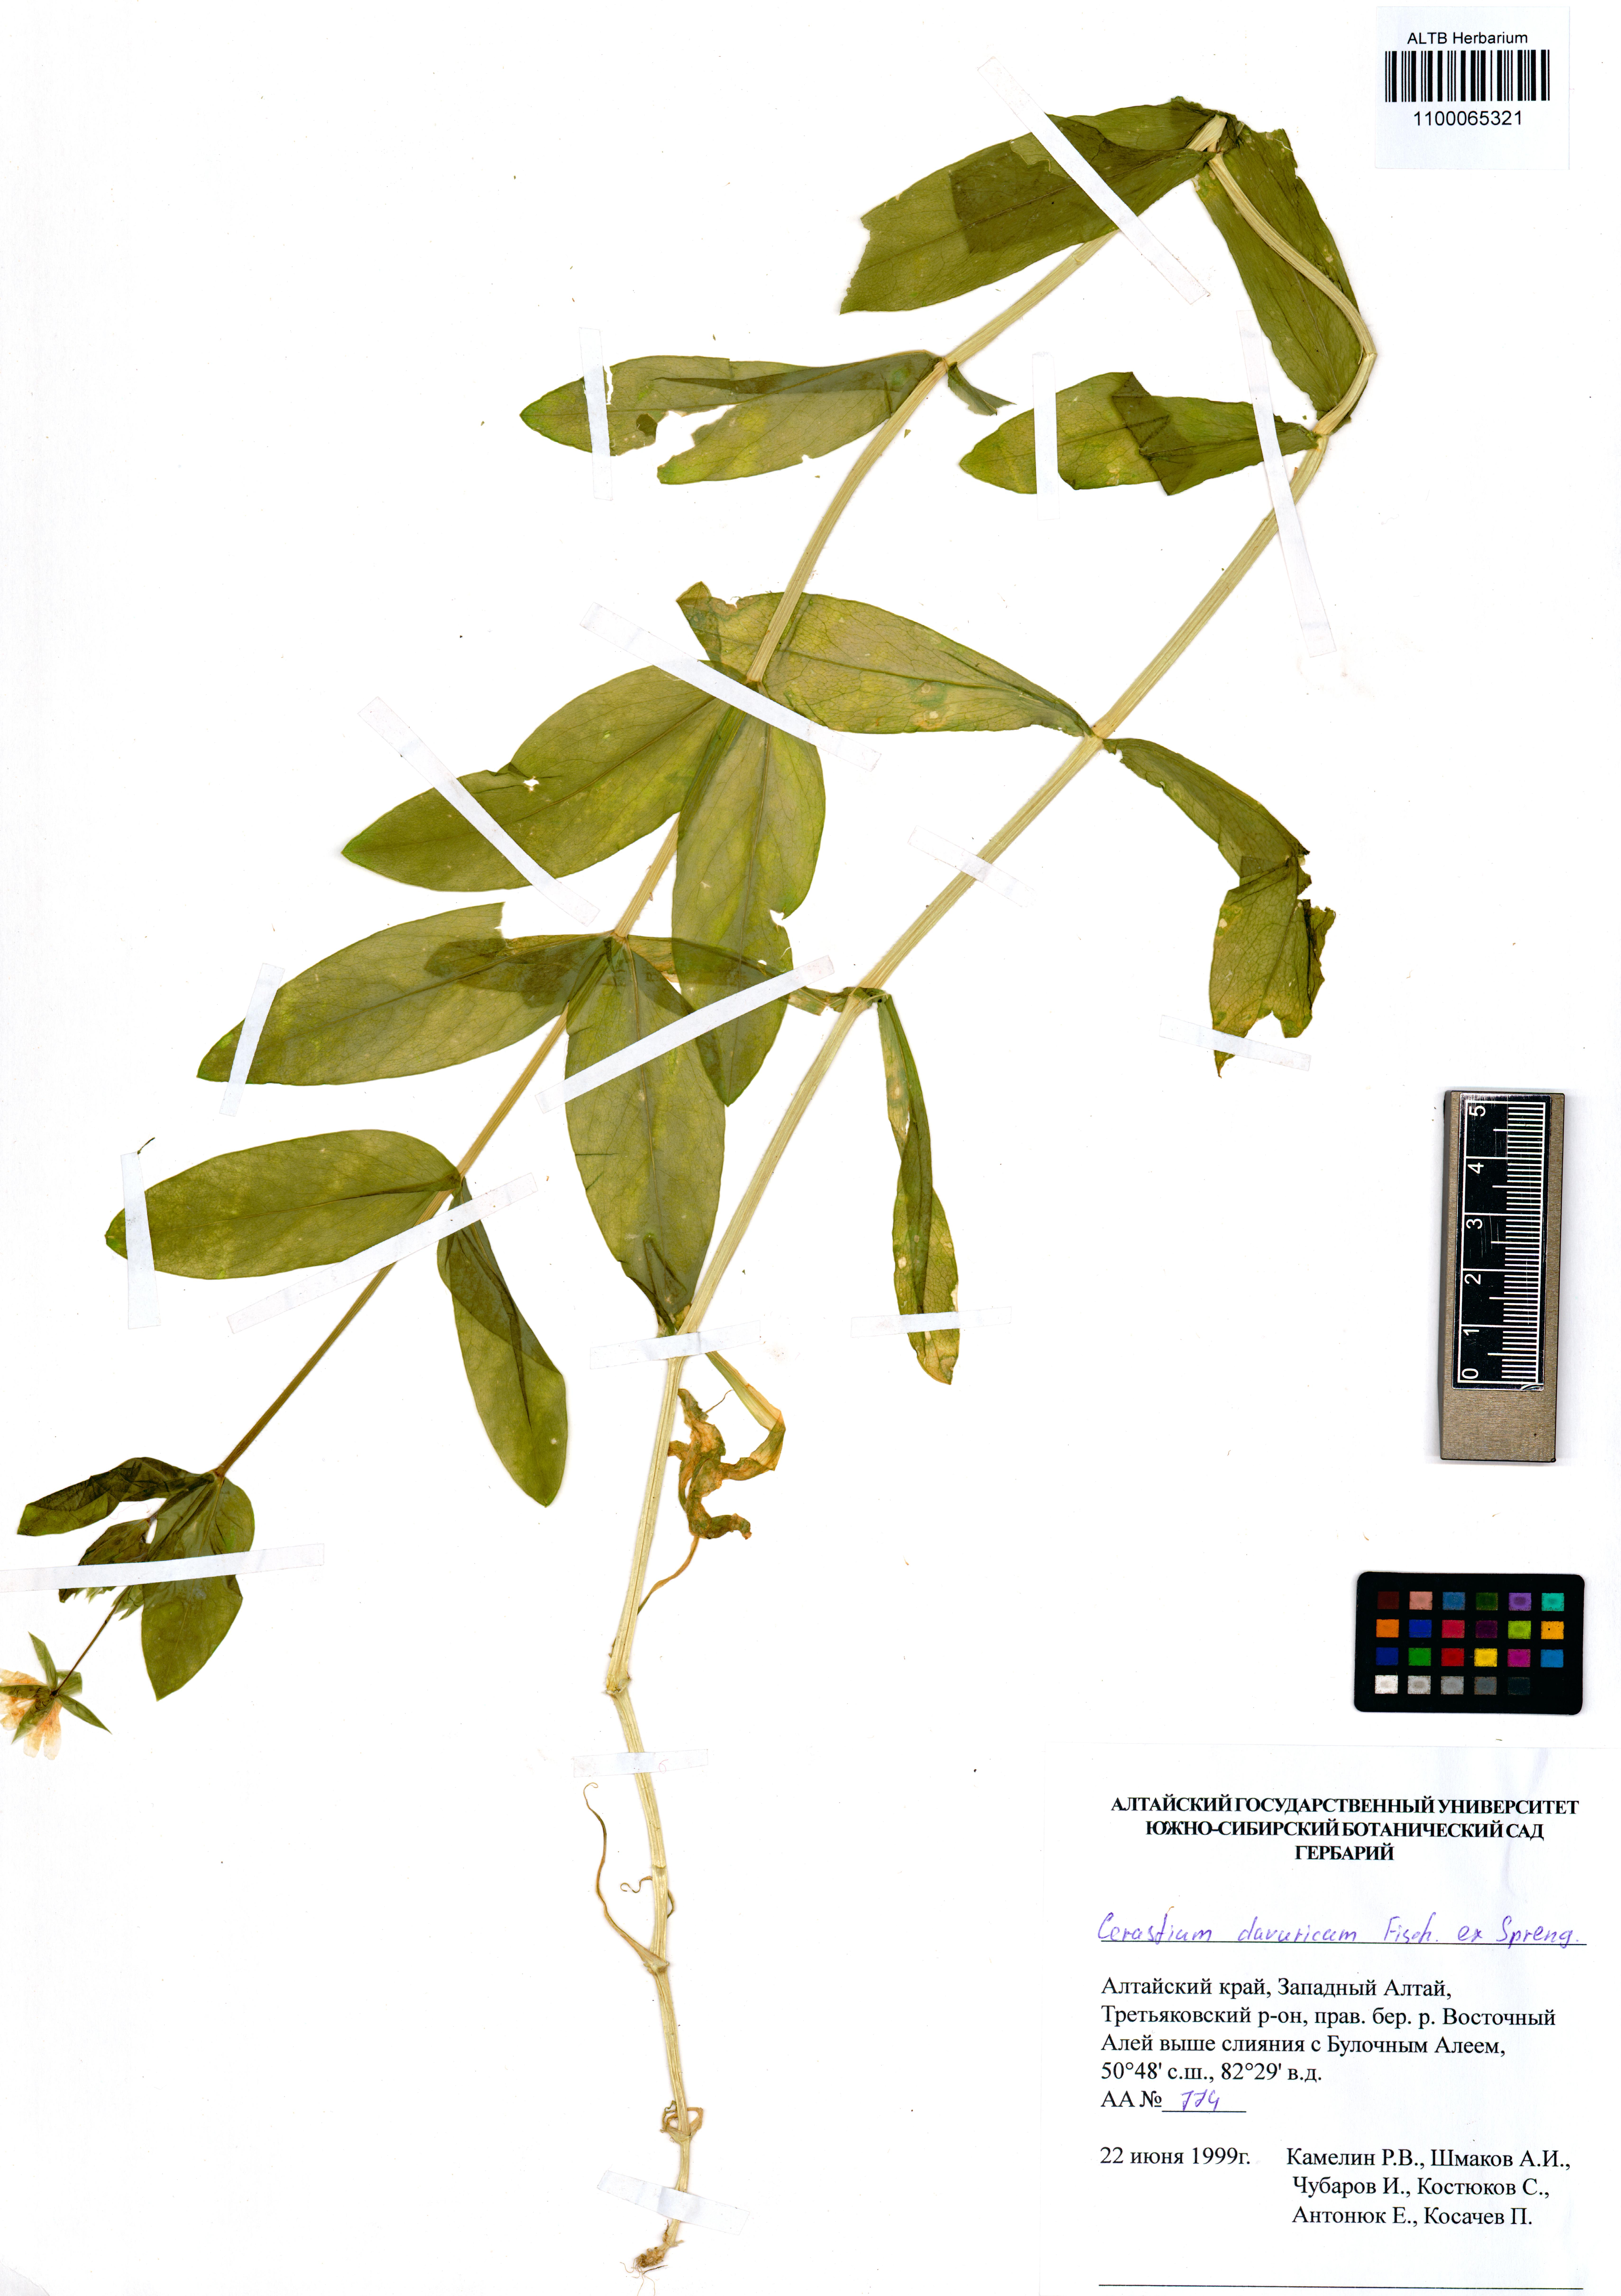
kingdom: Plantae
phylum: Tracheophyta
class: Magnoliopsida
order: Caryophyllales
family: Caryophyllaceae
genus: Dichodon
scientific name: Dichodon davuricum
